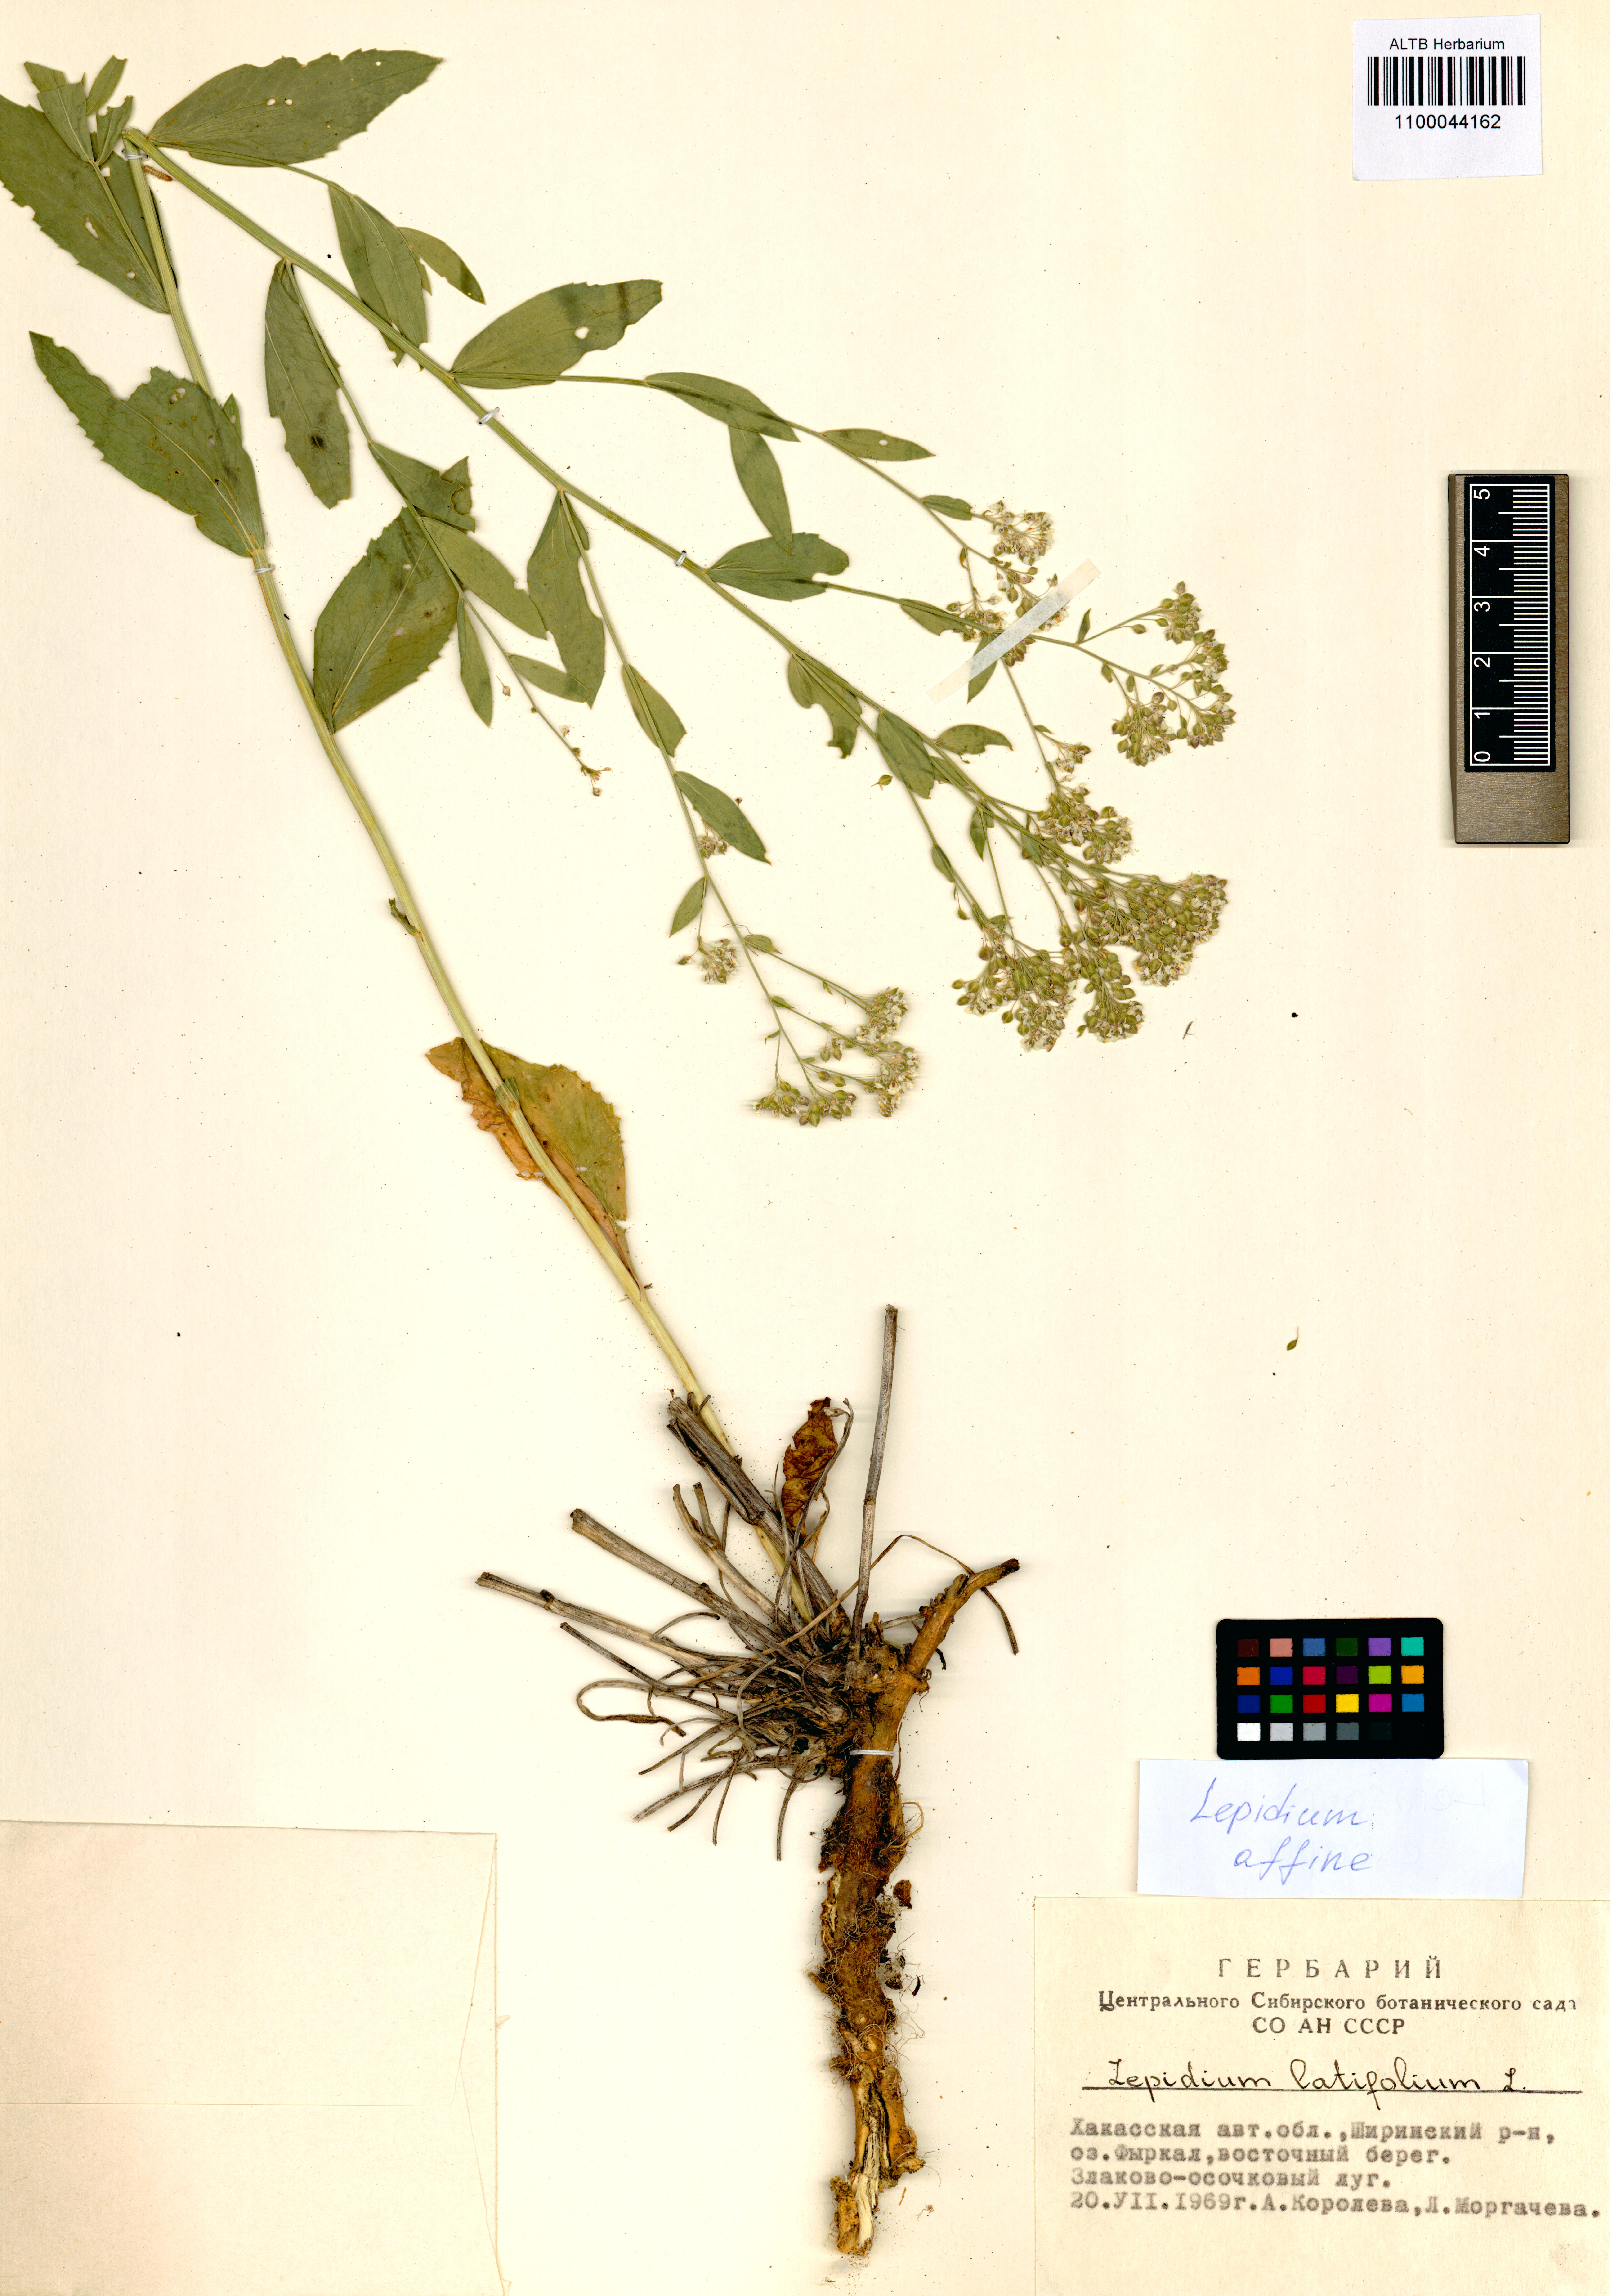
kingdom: Plantae
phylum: Tracheophyta
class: Magnoliopsida
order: Brassicales
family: Brassicaceae
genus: Lepidium
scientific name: Lepidium latifolium
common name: Dittander
